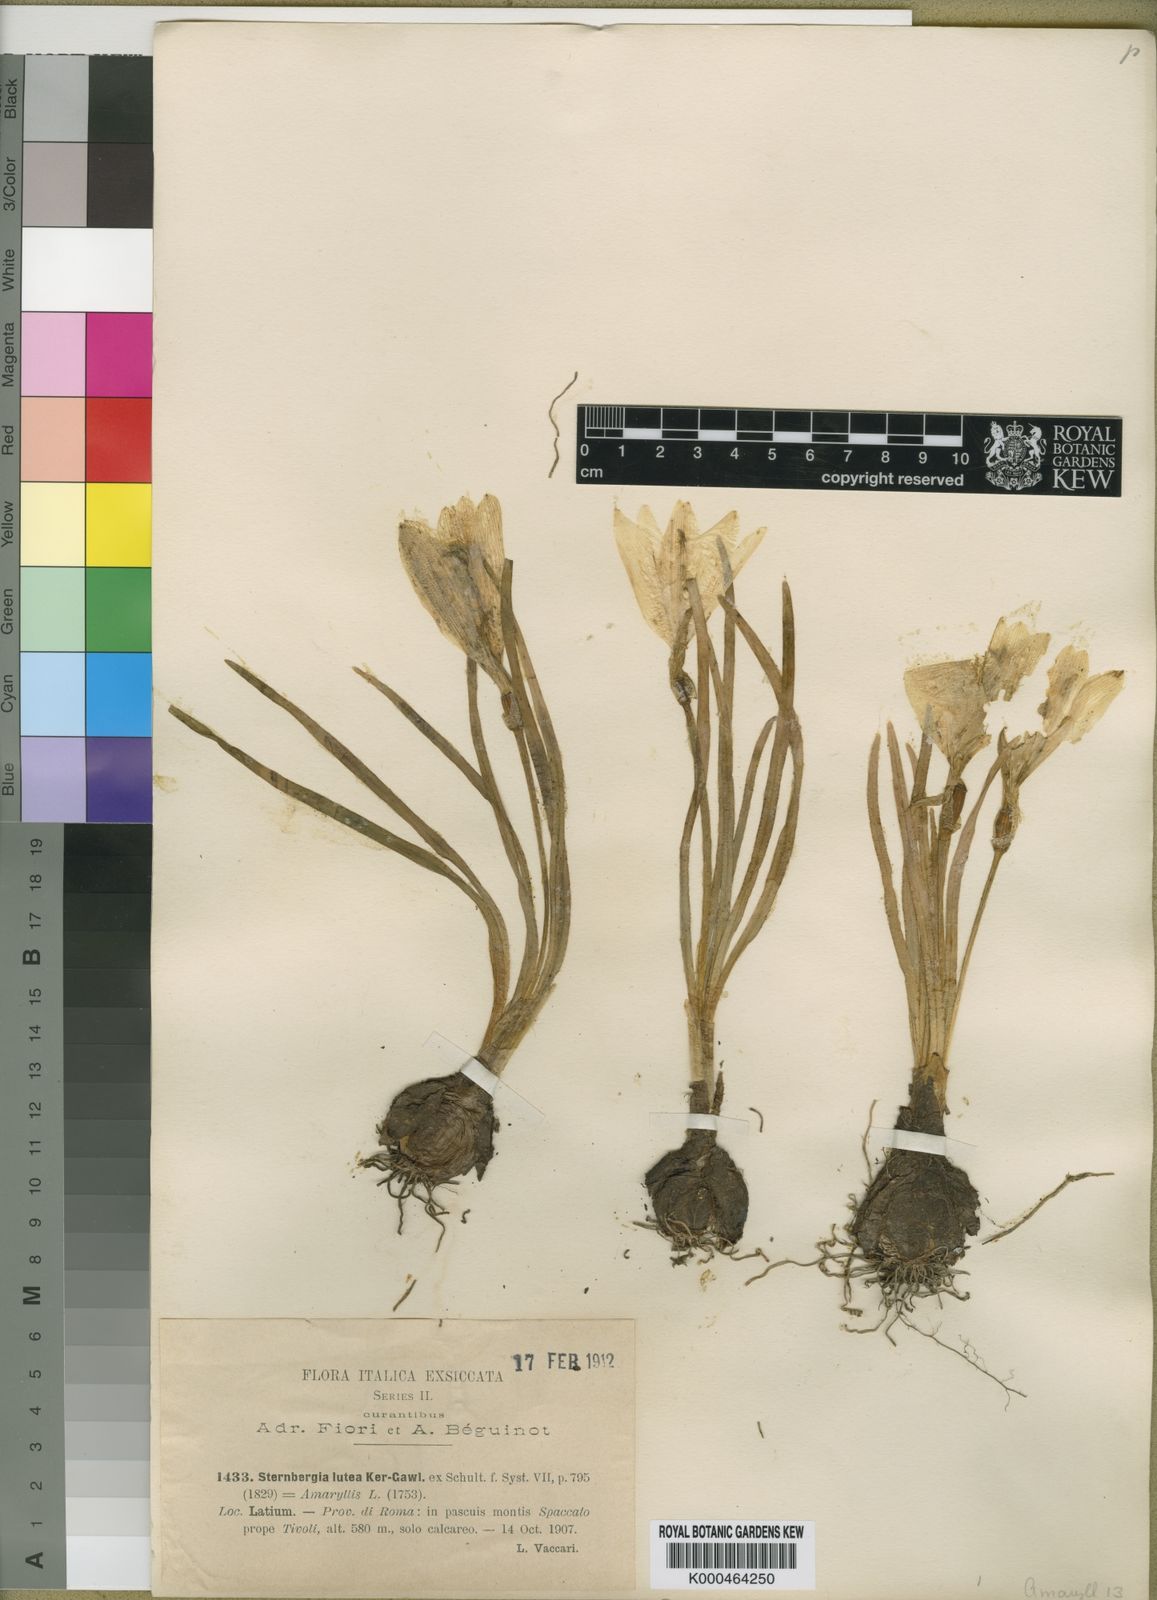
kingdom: Plantae
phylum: Tracheophyta
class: Liliopsida
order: Asparagales
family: Amaryllidaceae
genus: Sternbergia
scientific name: Sternbergia
